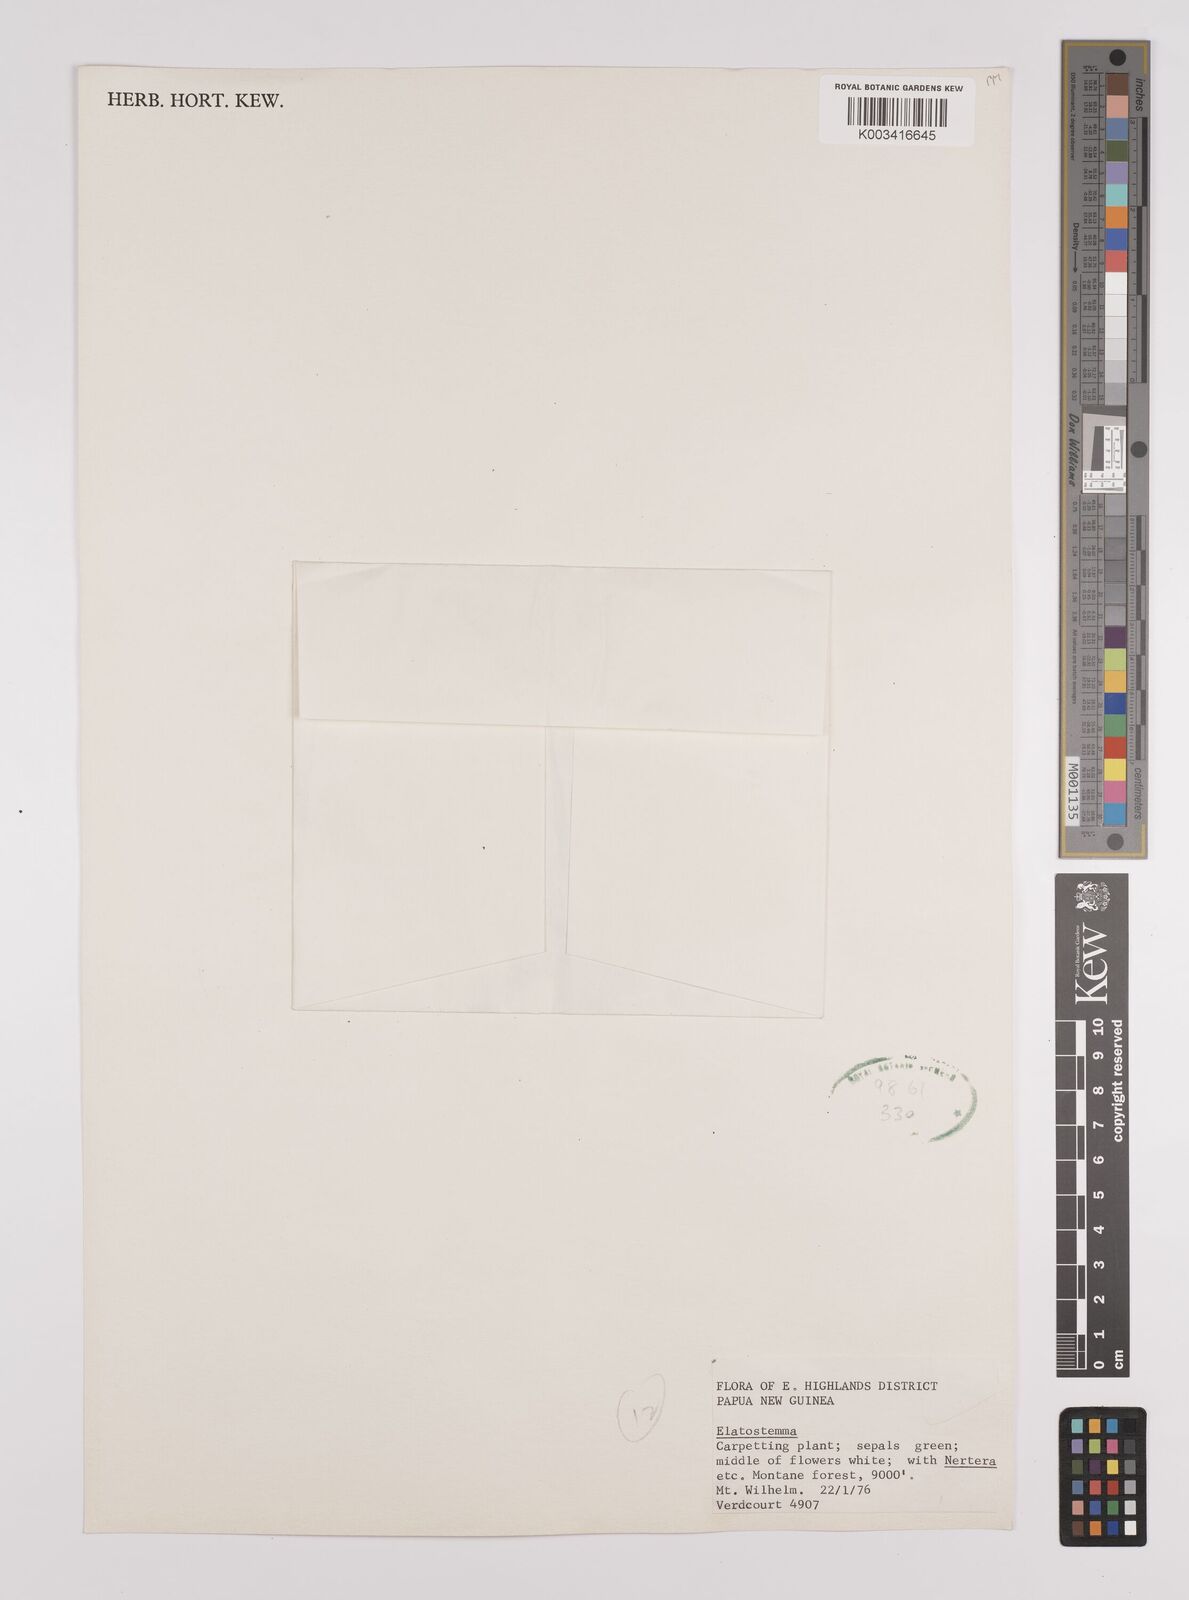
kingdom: Plantae
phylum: Tracheophyta
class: Magnoliopsida
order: Rosales
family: Urticaceae
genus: Elatostema
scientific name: Elatostema
